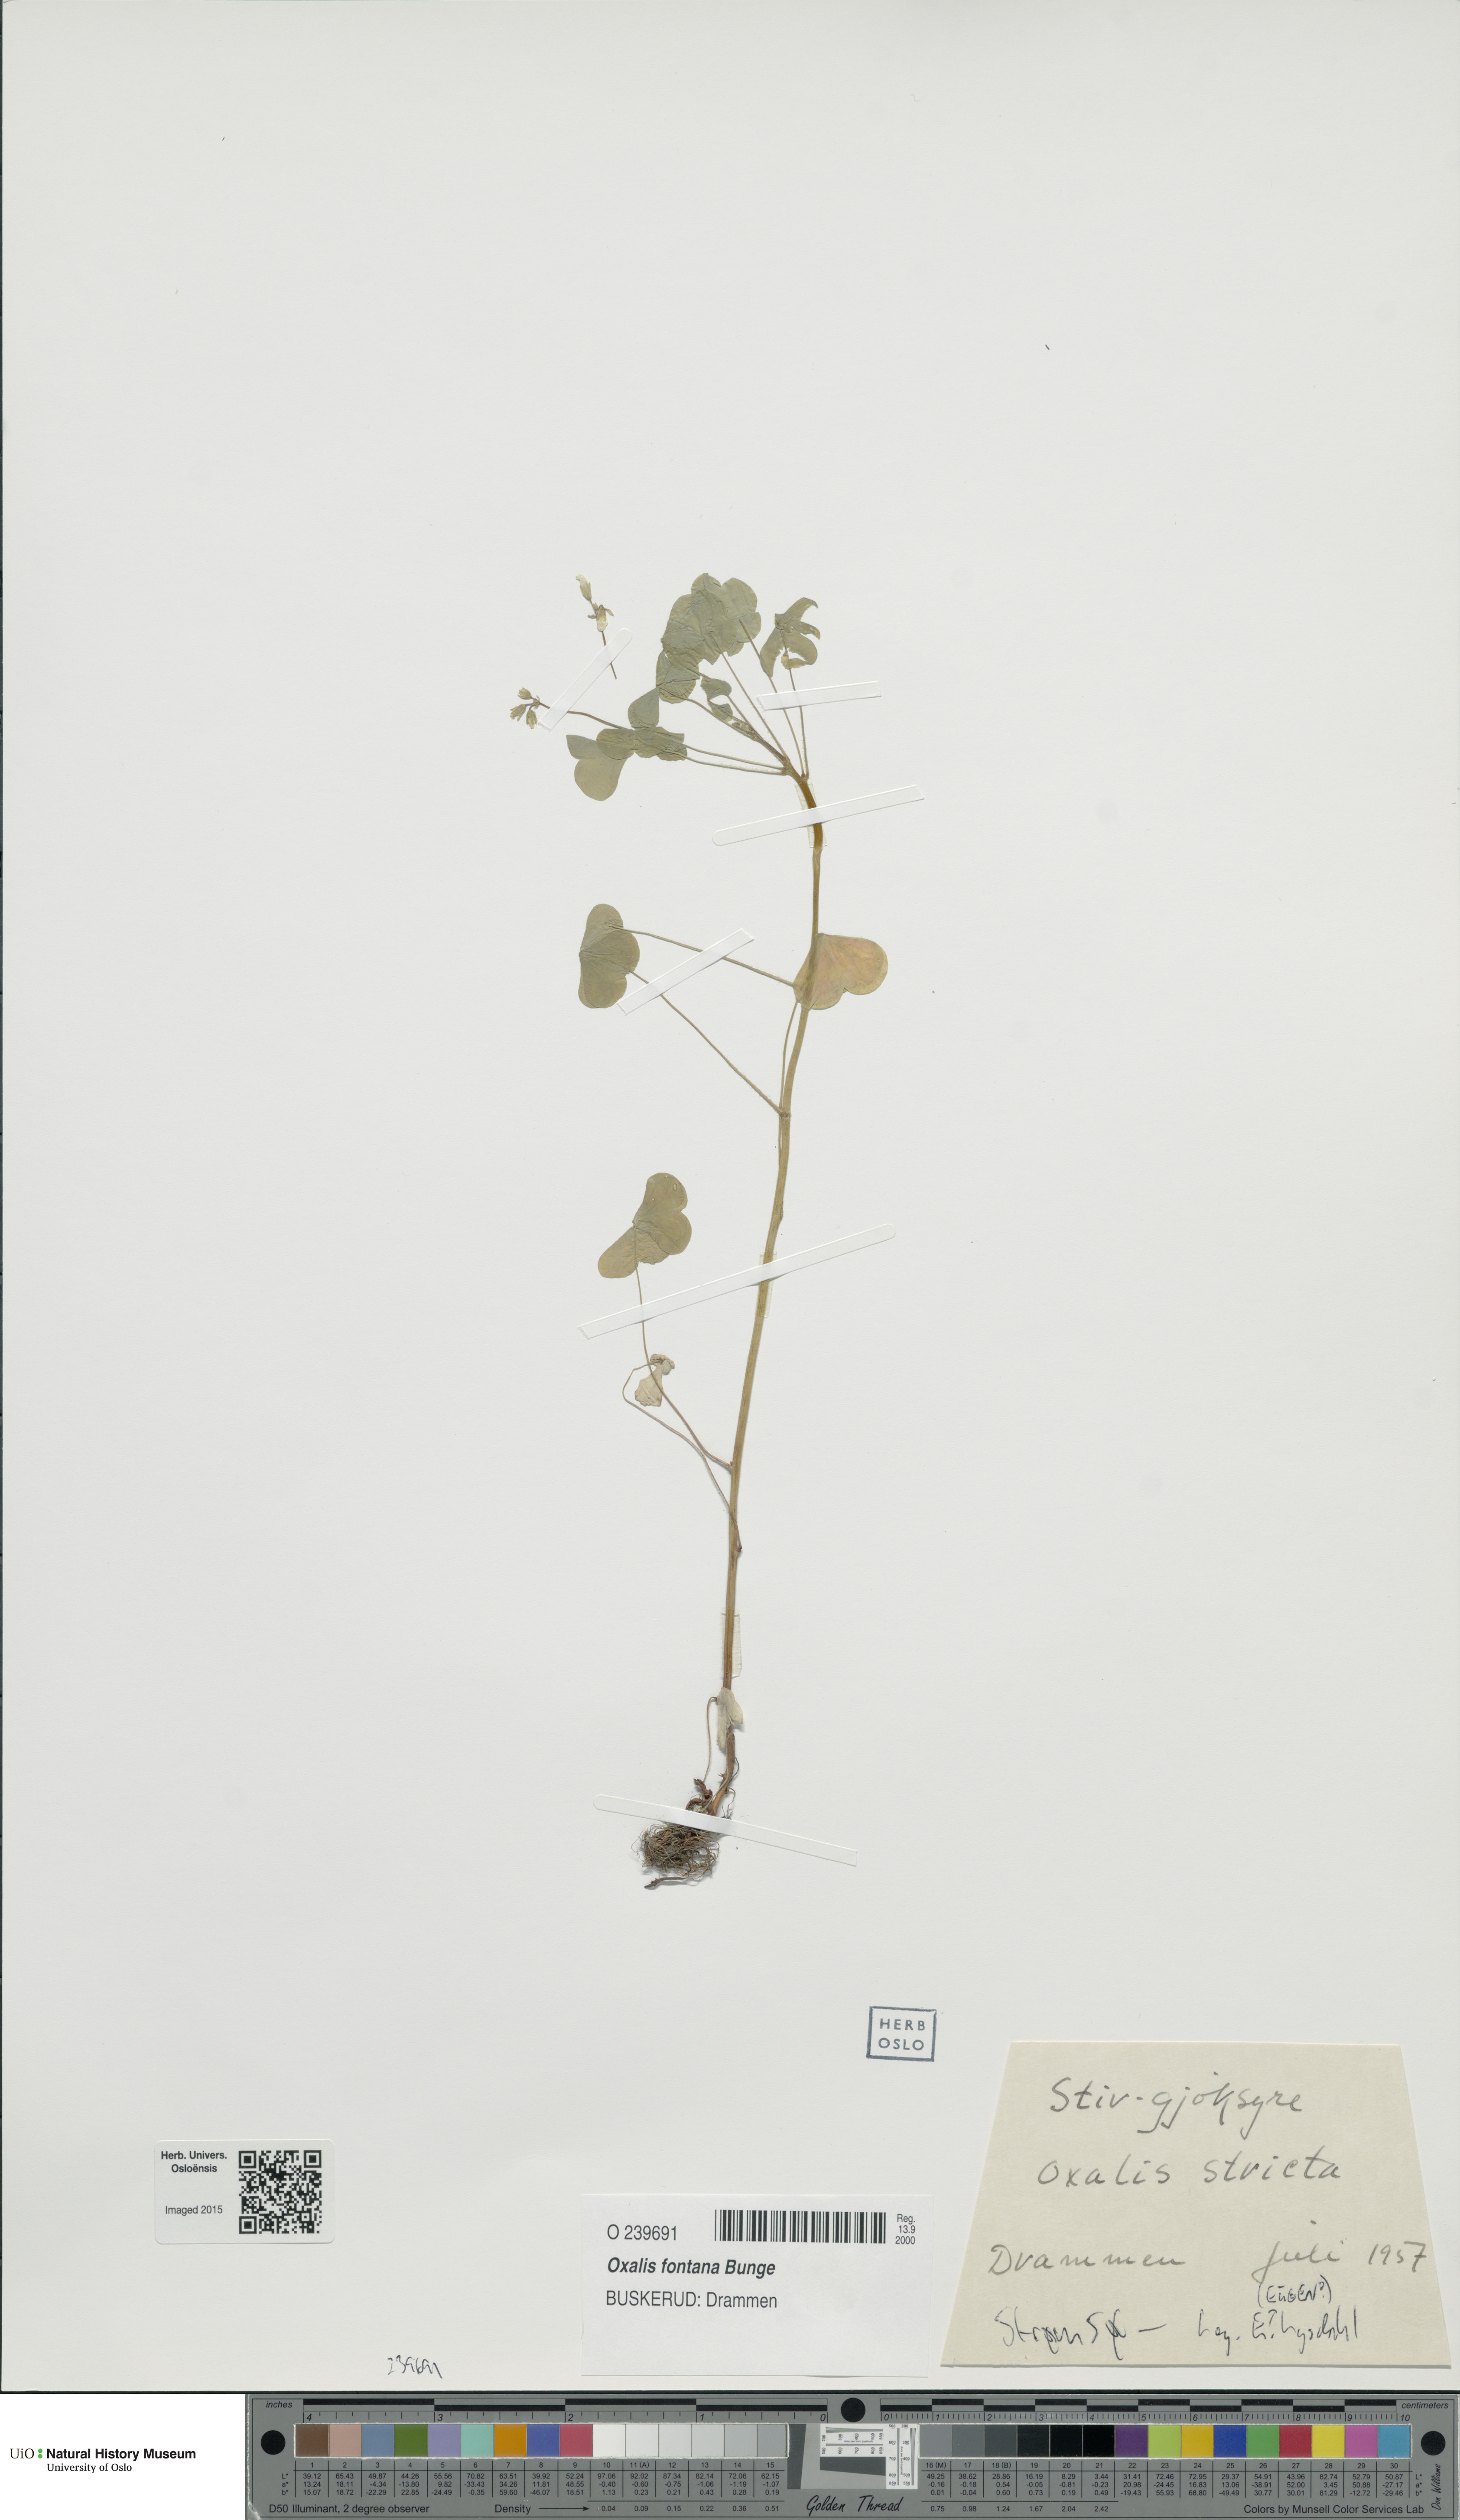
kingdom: Plantae
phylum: Tracheophyta
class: Magnoliopsida
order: Oxalidales
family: Oxalidaceae
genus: Oxalis
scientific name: Oxalis dillenii
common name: Sussex yellow-sorrel
